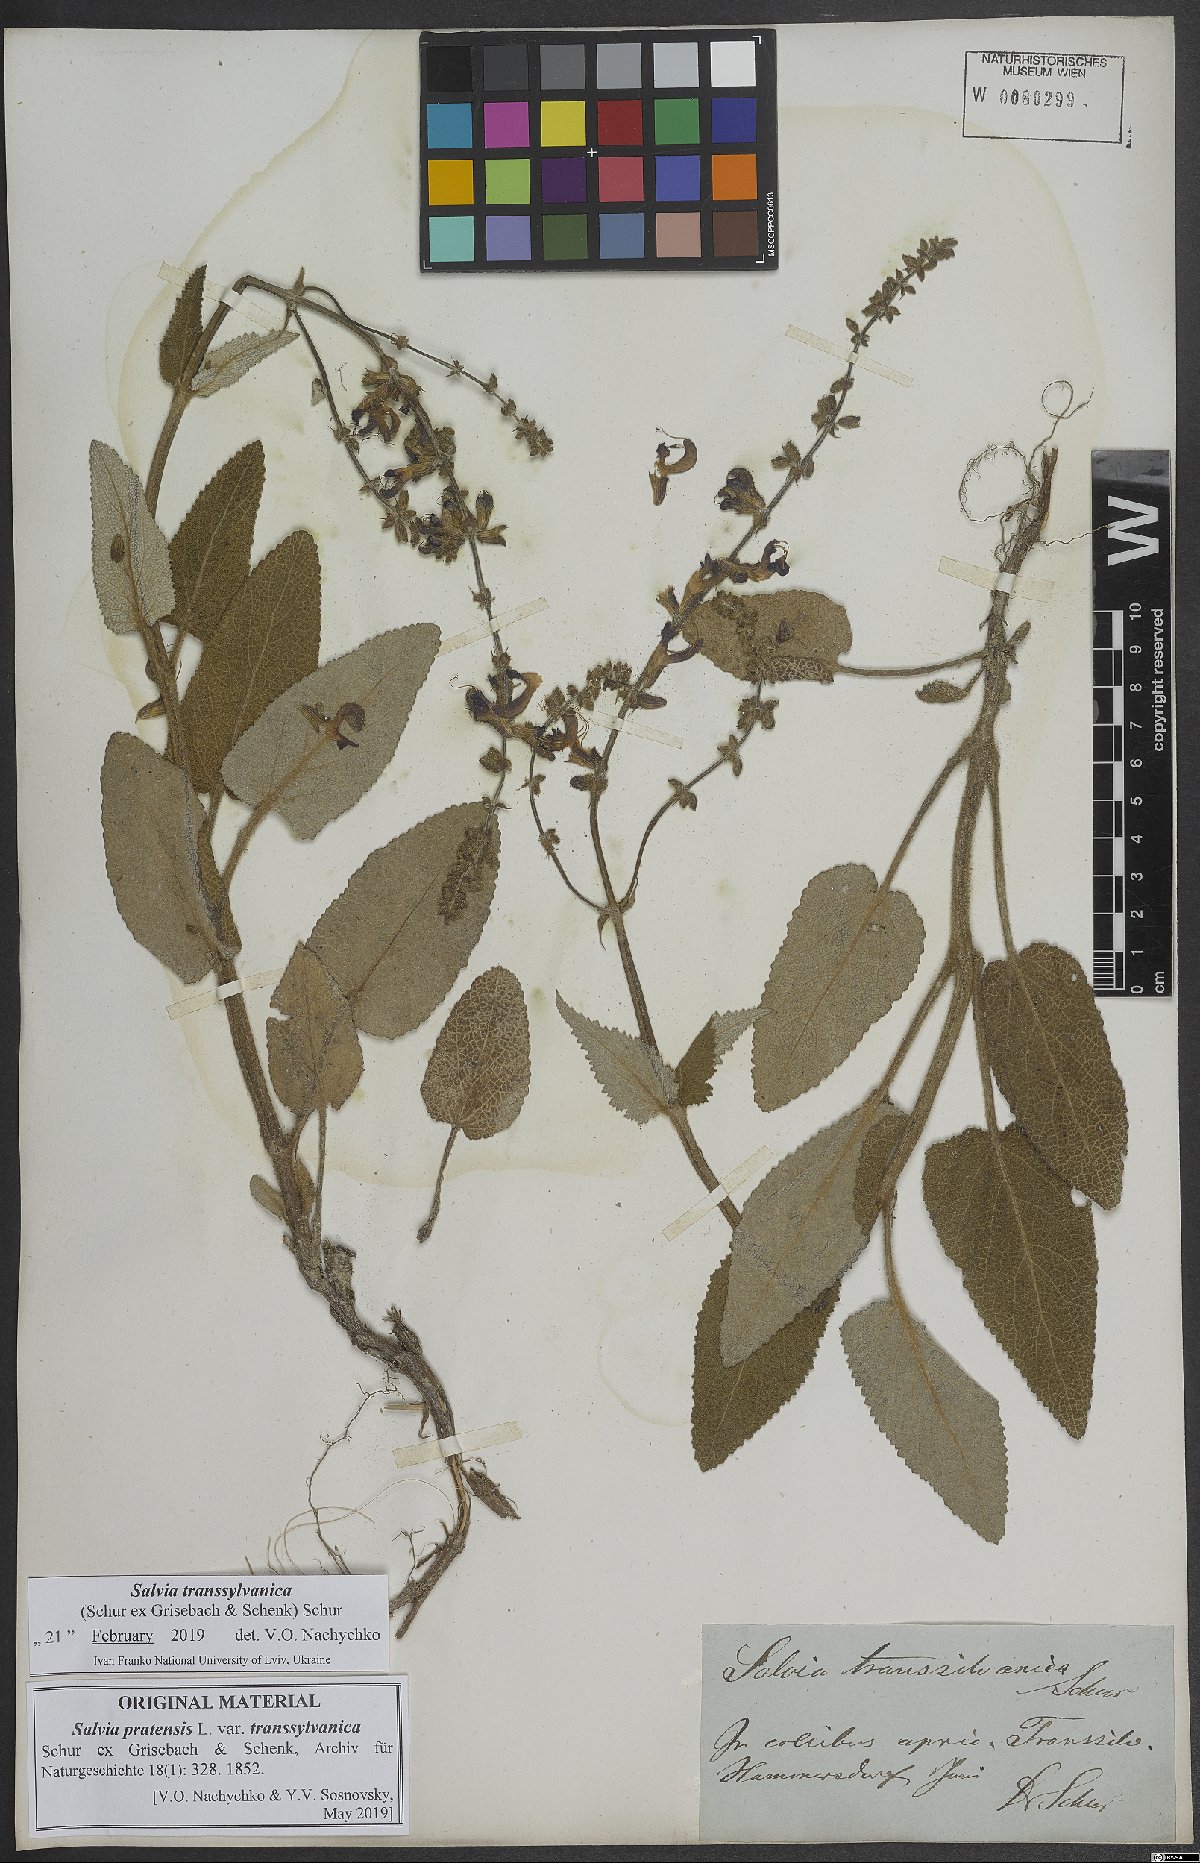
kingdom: Plantae
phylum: Tracheophyta
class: Magnoliopsida
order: Lamiales
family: Lamiaceae
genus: Salvia
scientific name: Salvia transsylvanica
